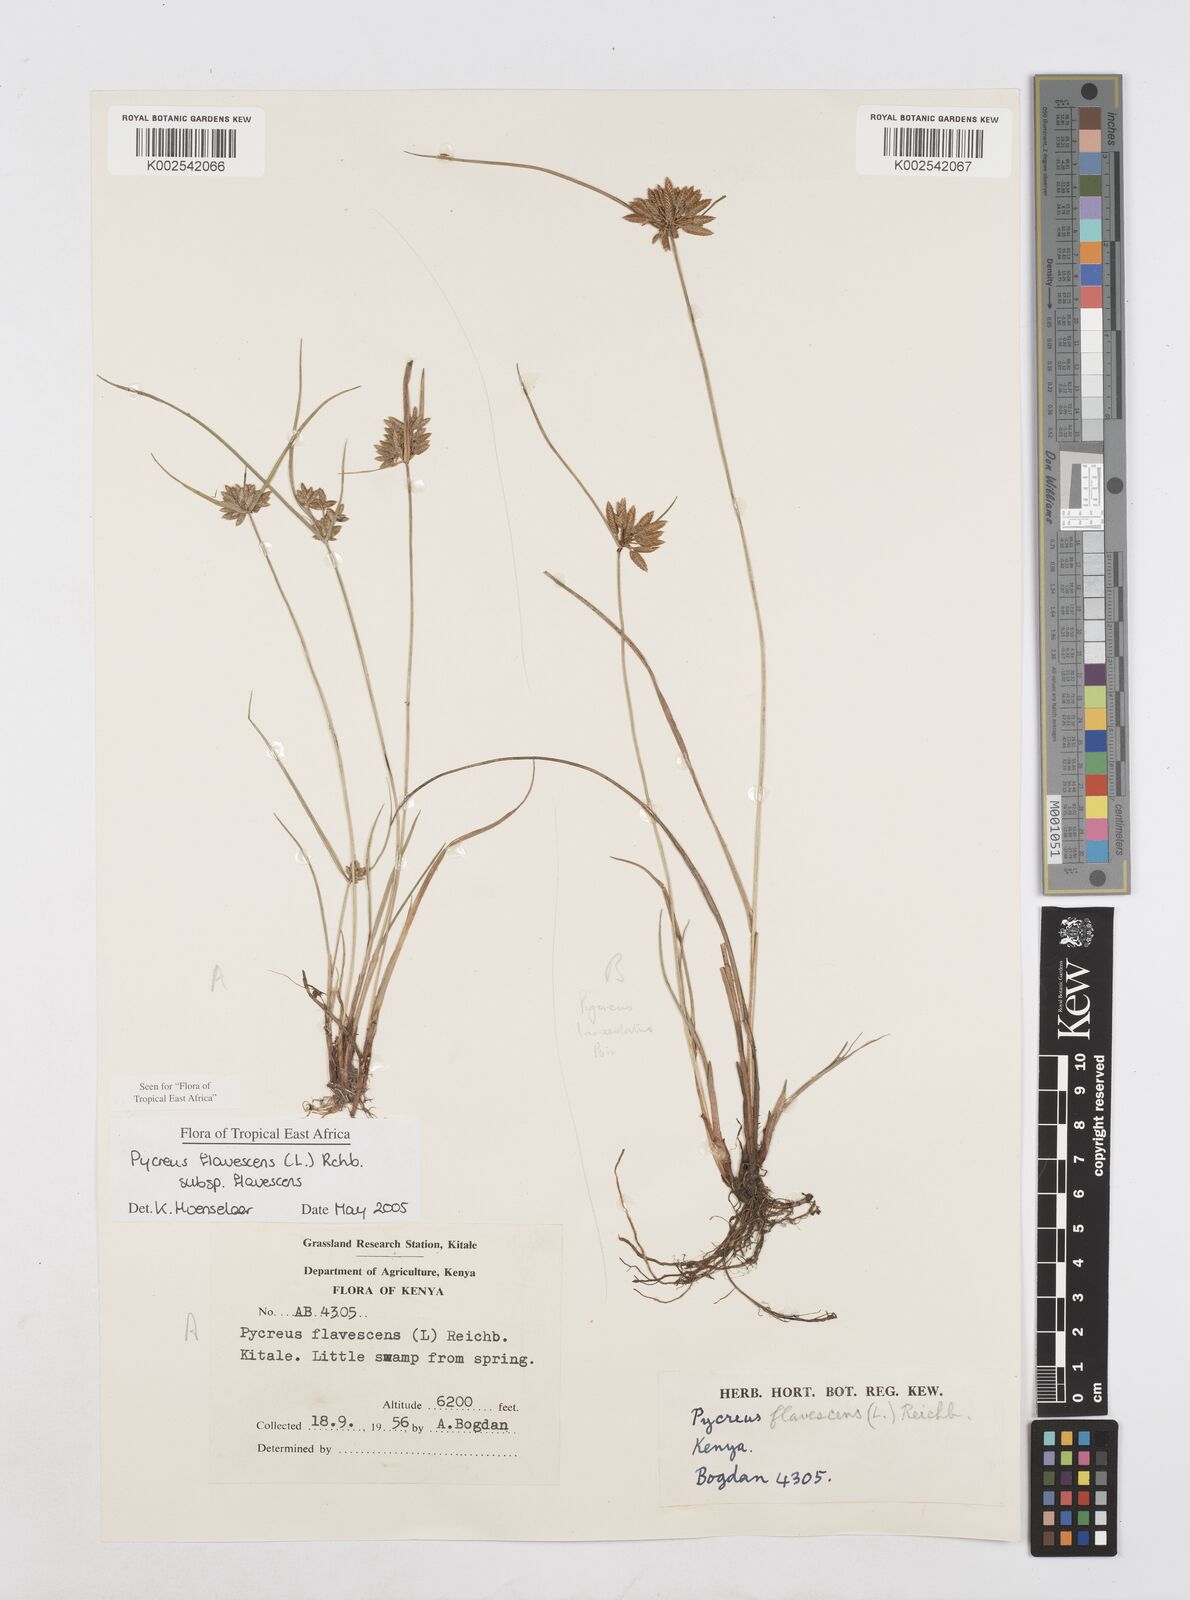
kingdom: Plantae
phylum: Tracheophyta
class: Liliopsida
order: Poales
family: Cyperaceae
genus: Cyperus
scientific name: Cyperus flavescens
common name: Yellow galingale
